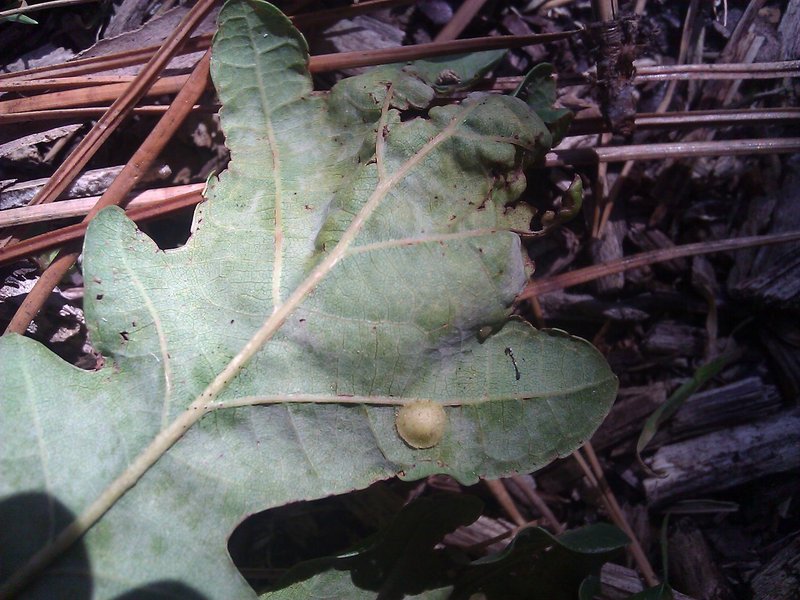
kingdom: Animalia
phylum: Arthropoda
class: Insecta
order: Hymenoptera
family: Cynipidae
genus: Neuroterus
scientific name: Neuroterus quercusbaccarum
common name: Common spangle gall
